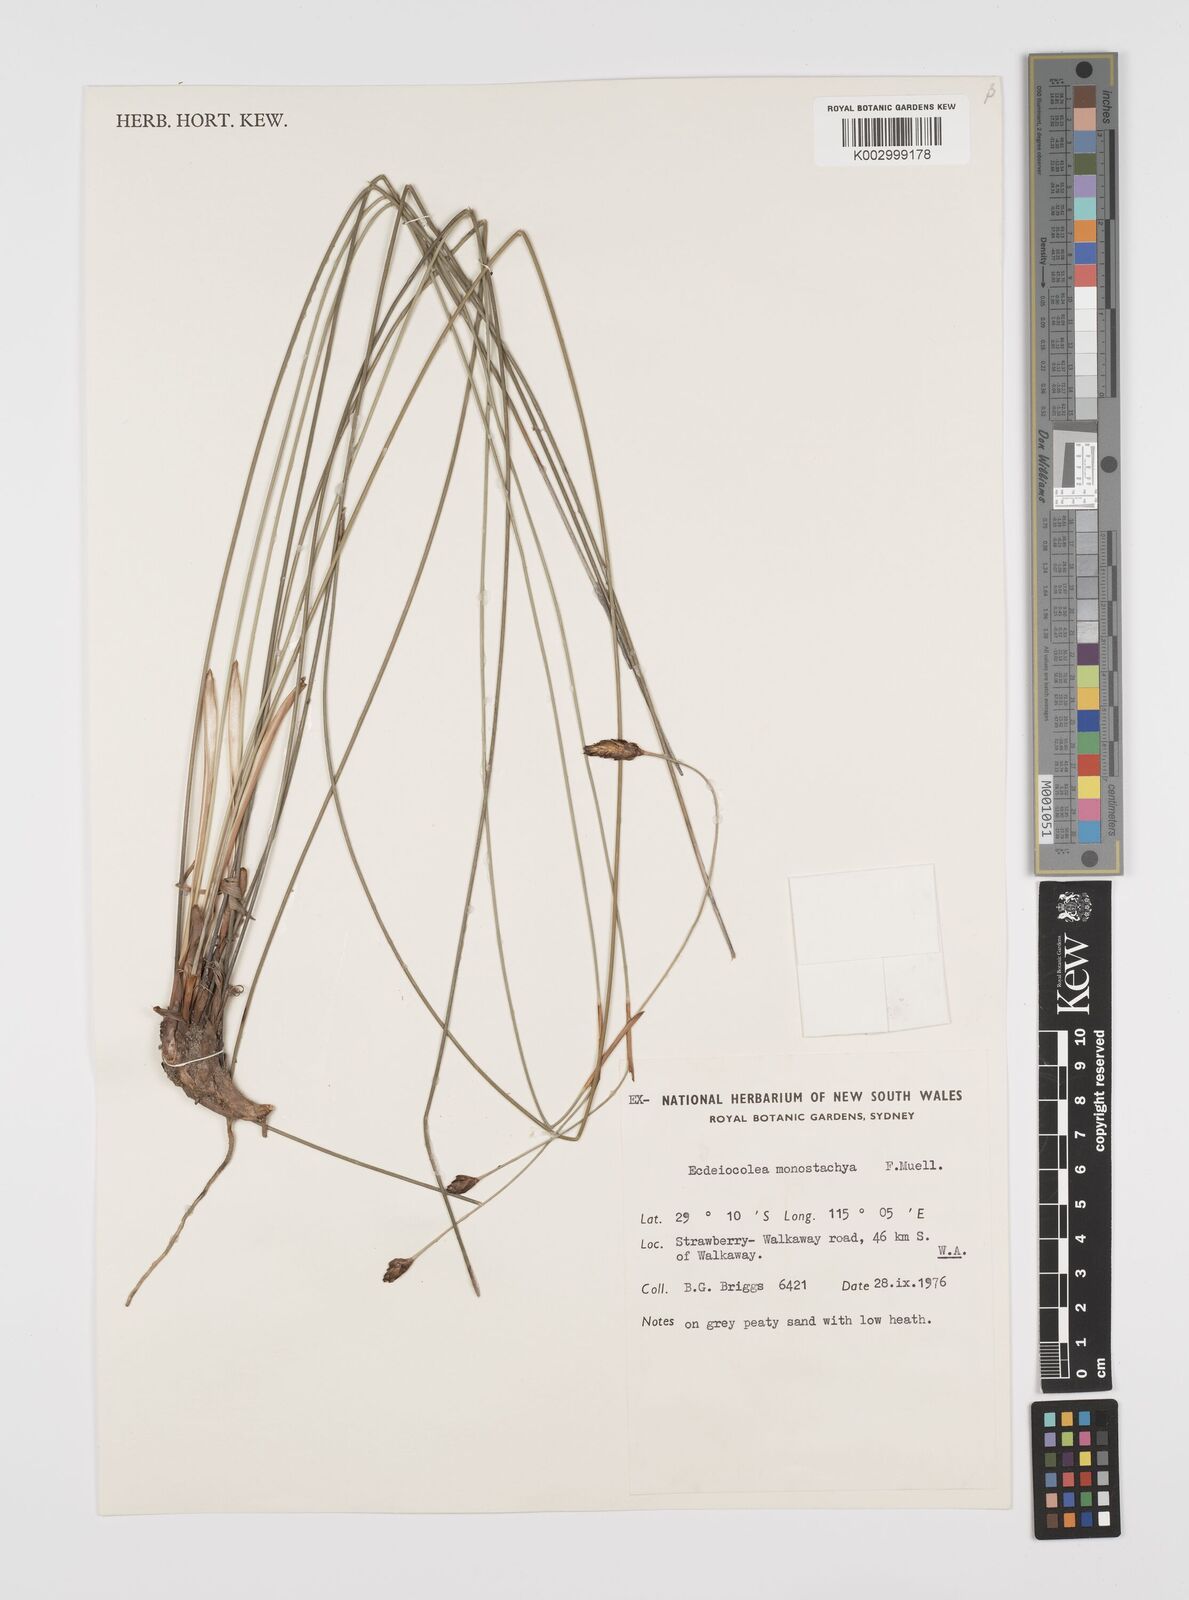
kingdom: Plantae
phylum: Tracheophyta
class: Liliopsida
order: Poales
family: Ecdeiocoleaceae
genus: Ecdeiocolea
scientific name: Ecdeiocolea monostachya
